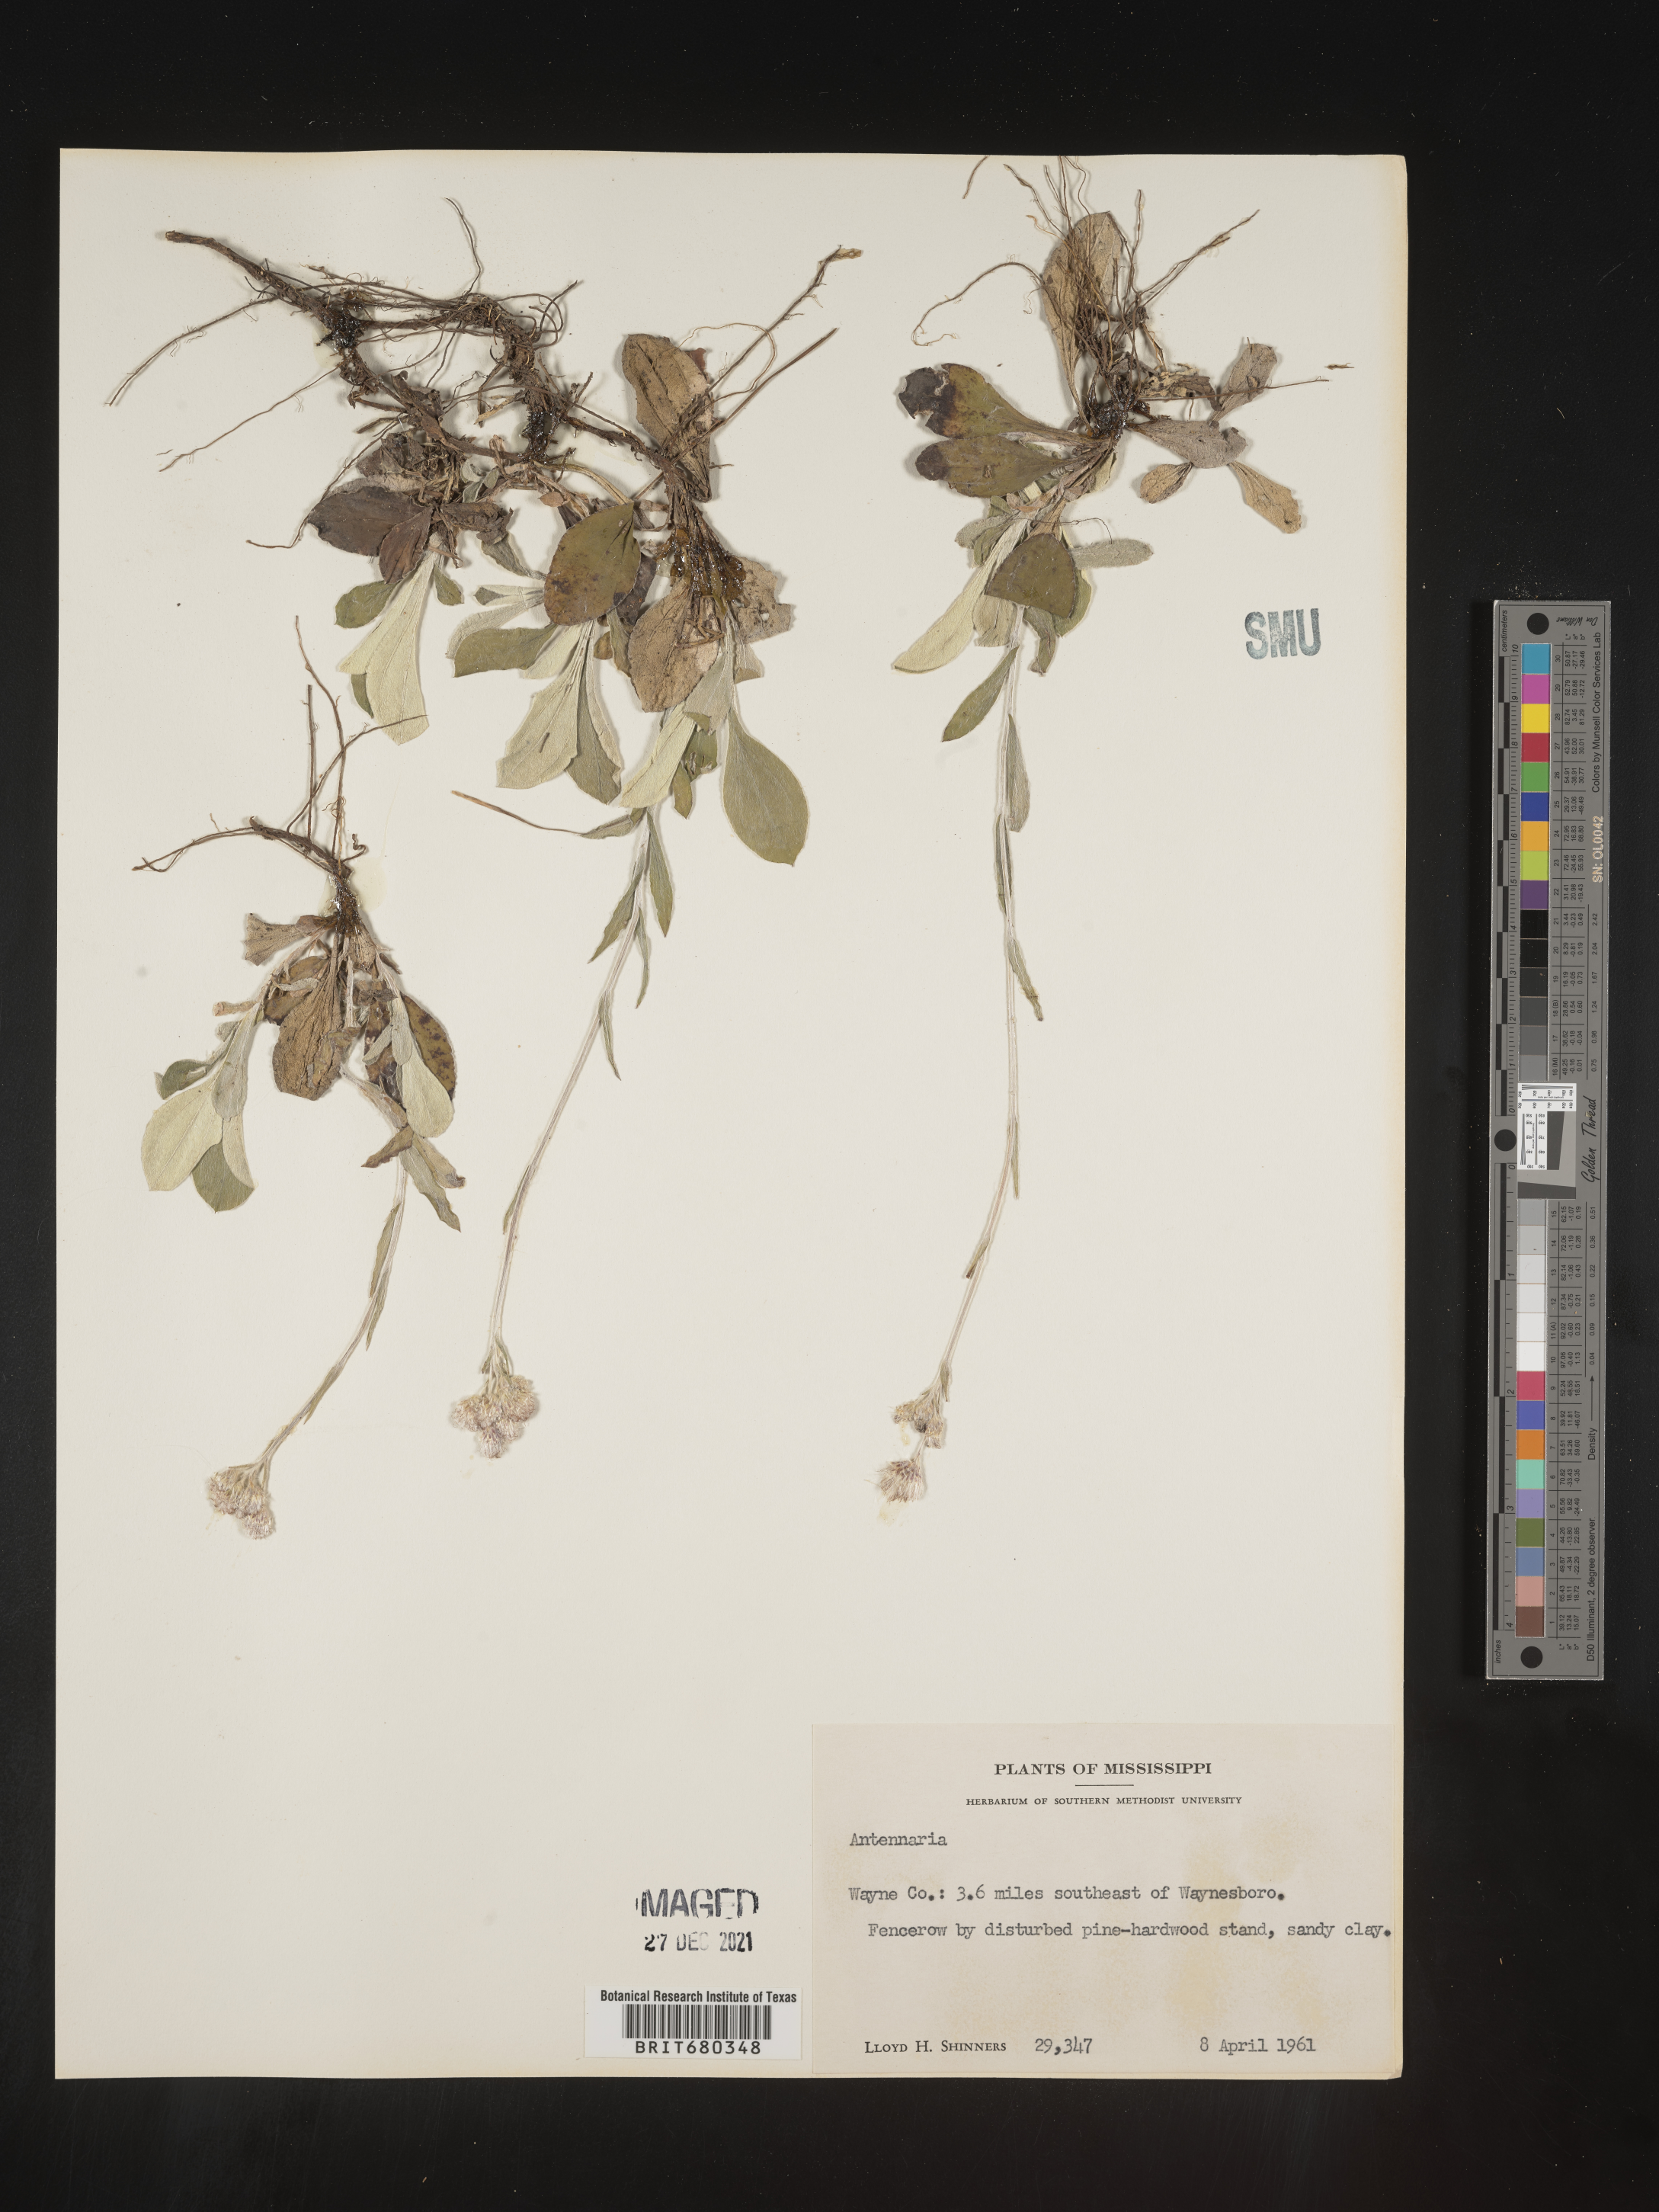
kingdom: Plantae
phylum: Tracheophyta
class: Magnoliopsida
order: Asterales
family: Asteraceae
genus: Antennaria
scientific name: Antennaria
